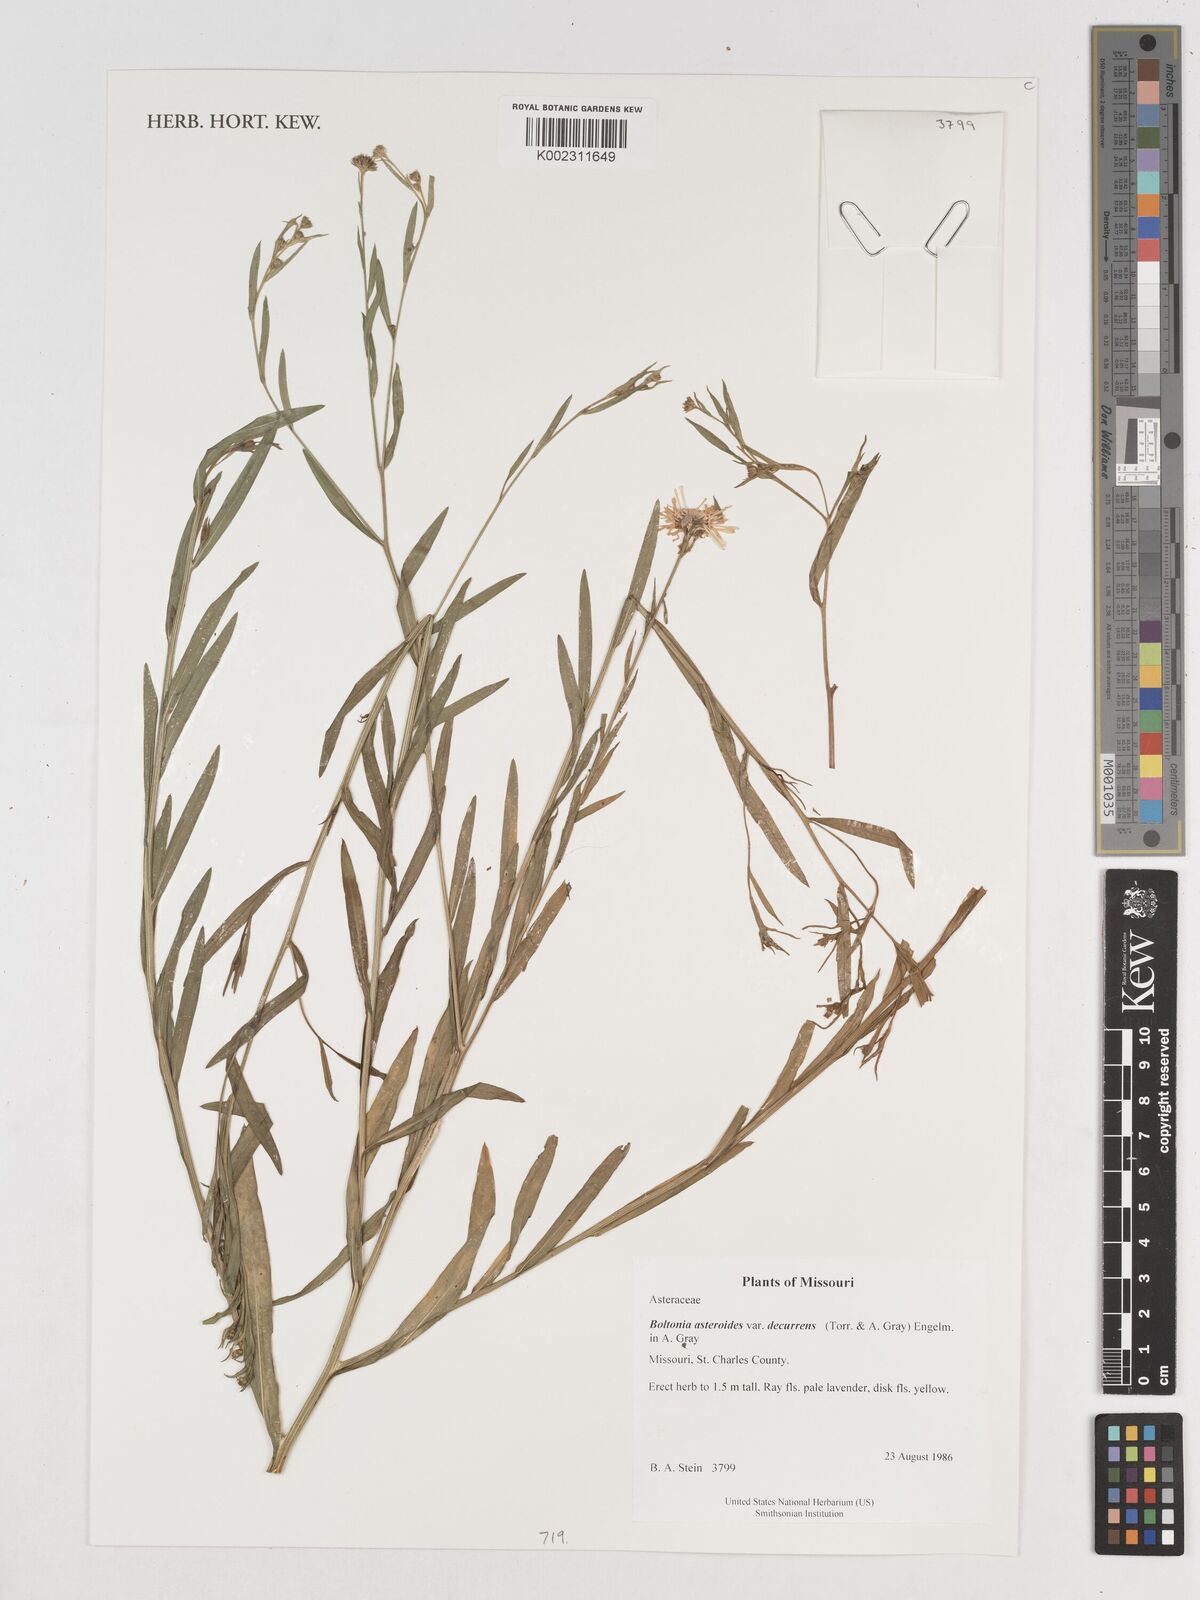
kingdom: Plantae
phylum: Tracheophyta
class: Magnoliopsida
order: Asterales
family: Asteraceae
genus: Boltonia
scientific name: Boltonia decurrens
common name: Decurrent false aster
